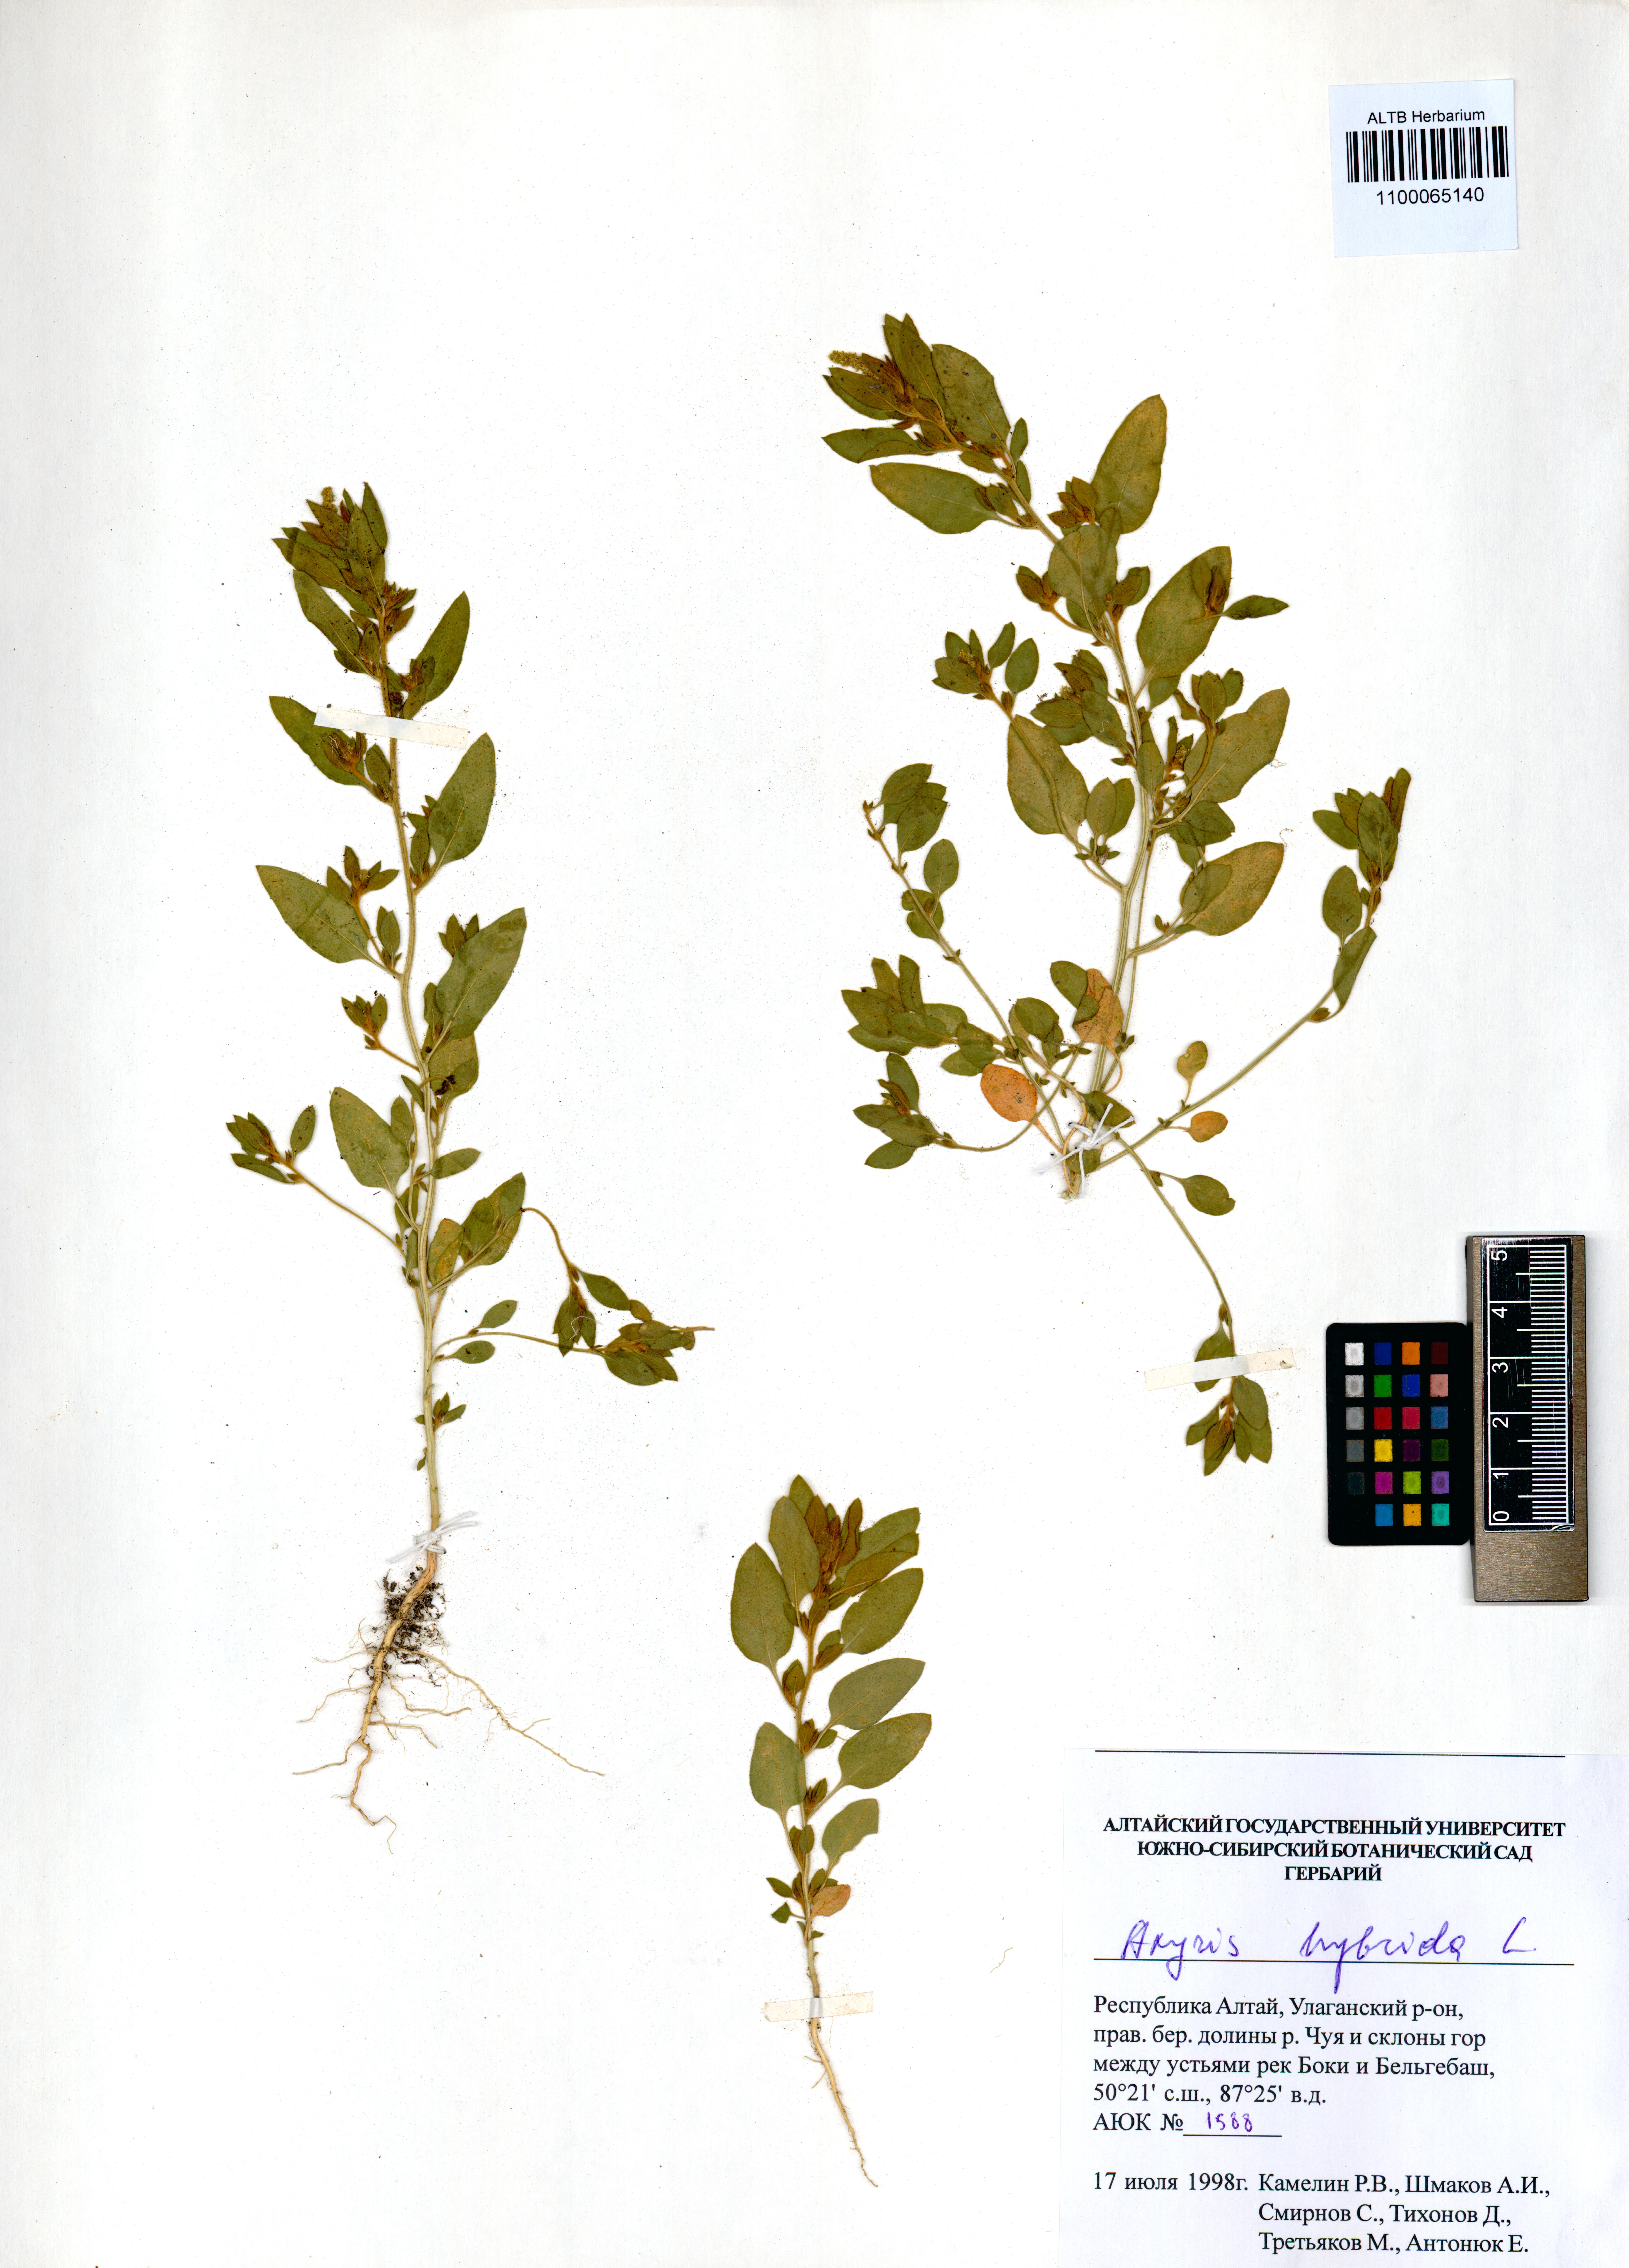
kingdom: Plantae
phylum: Tracheophyta
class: Magnoliopsida
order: Caryophyllales
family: Amaranthaceae
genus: Axyris
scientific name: Axyris hybrida
